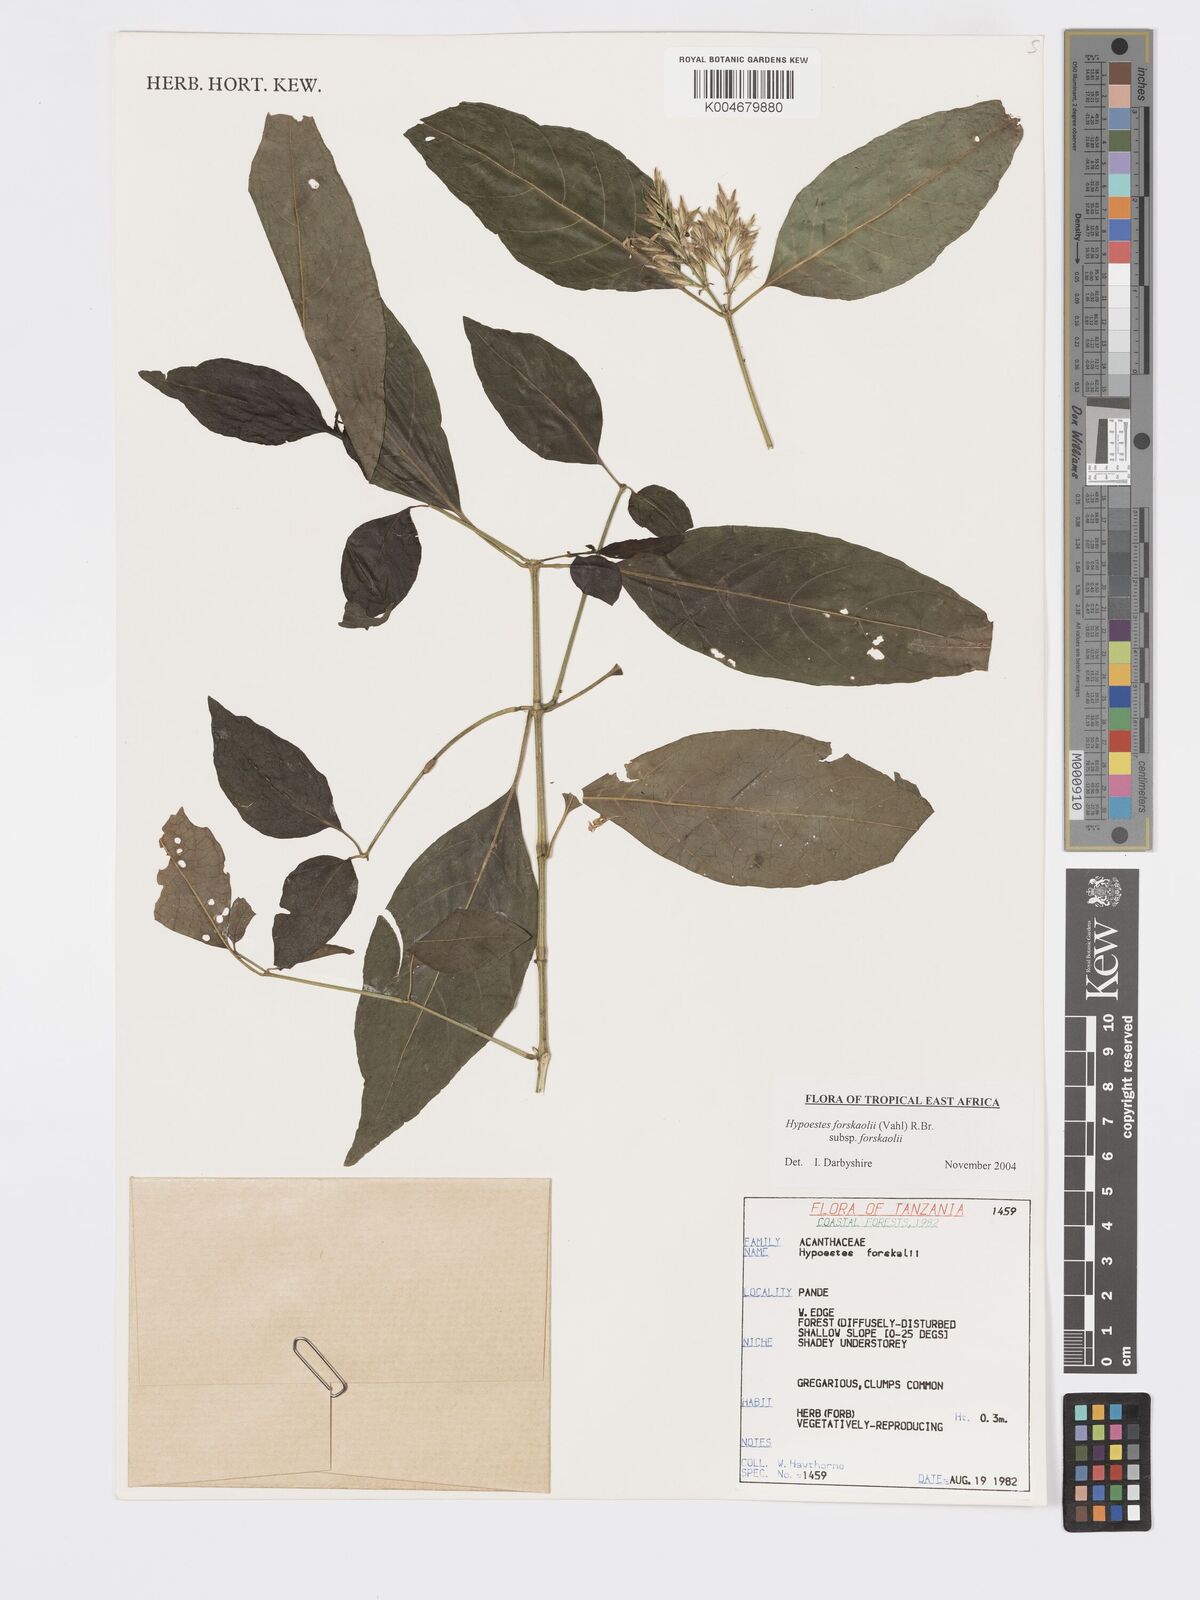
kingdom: Plantae
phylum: Tracheophyta
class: Magnoliopsida
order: Lamiales
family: Acanthaceae
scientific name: Acanthaceae
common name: Acanthaceae
